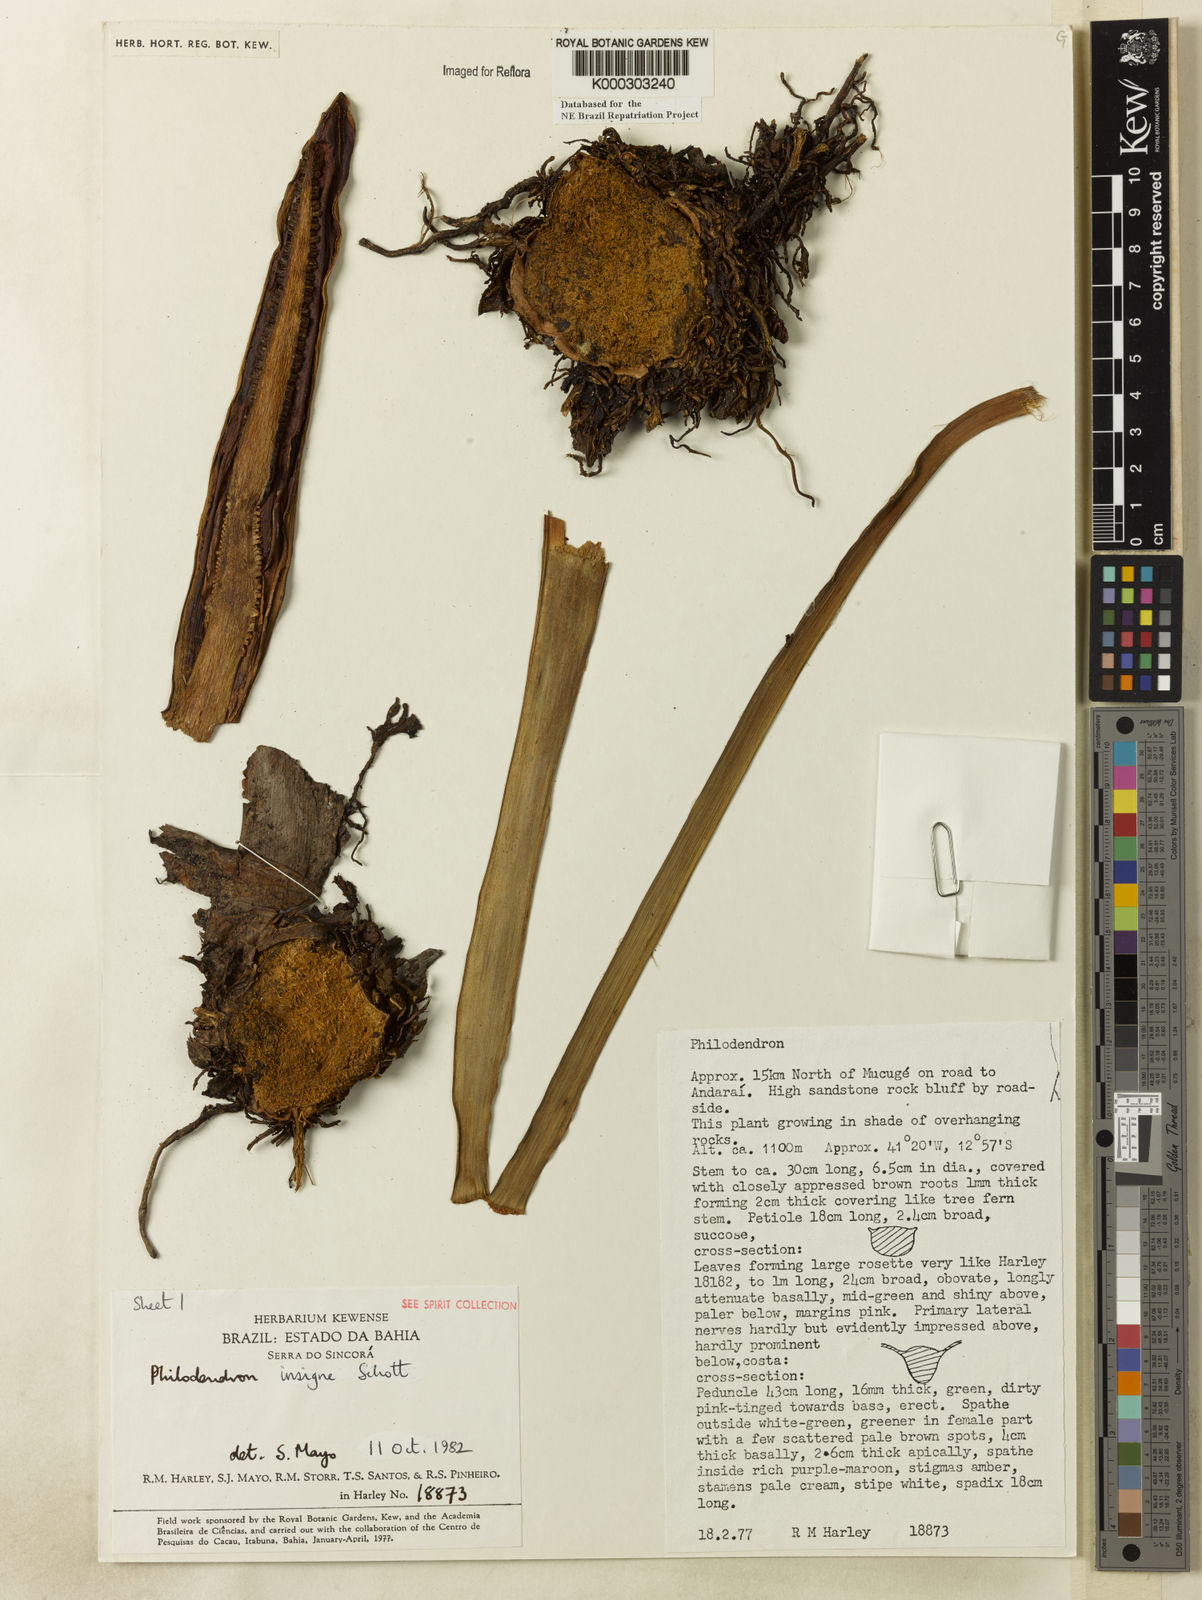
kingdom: Plantae
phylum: Tracheophyta
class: Liliopsida
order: Alismatales
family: Araceae
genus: Philodendron
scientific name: Philodendron insigne
